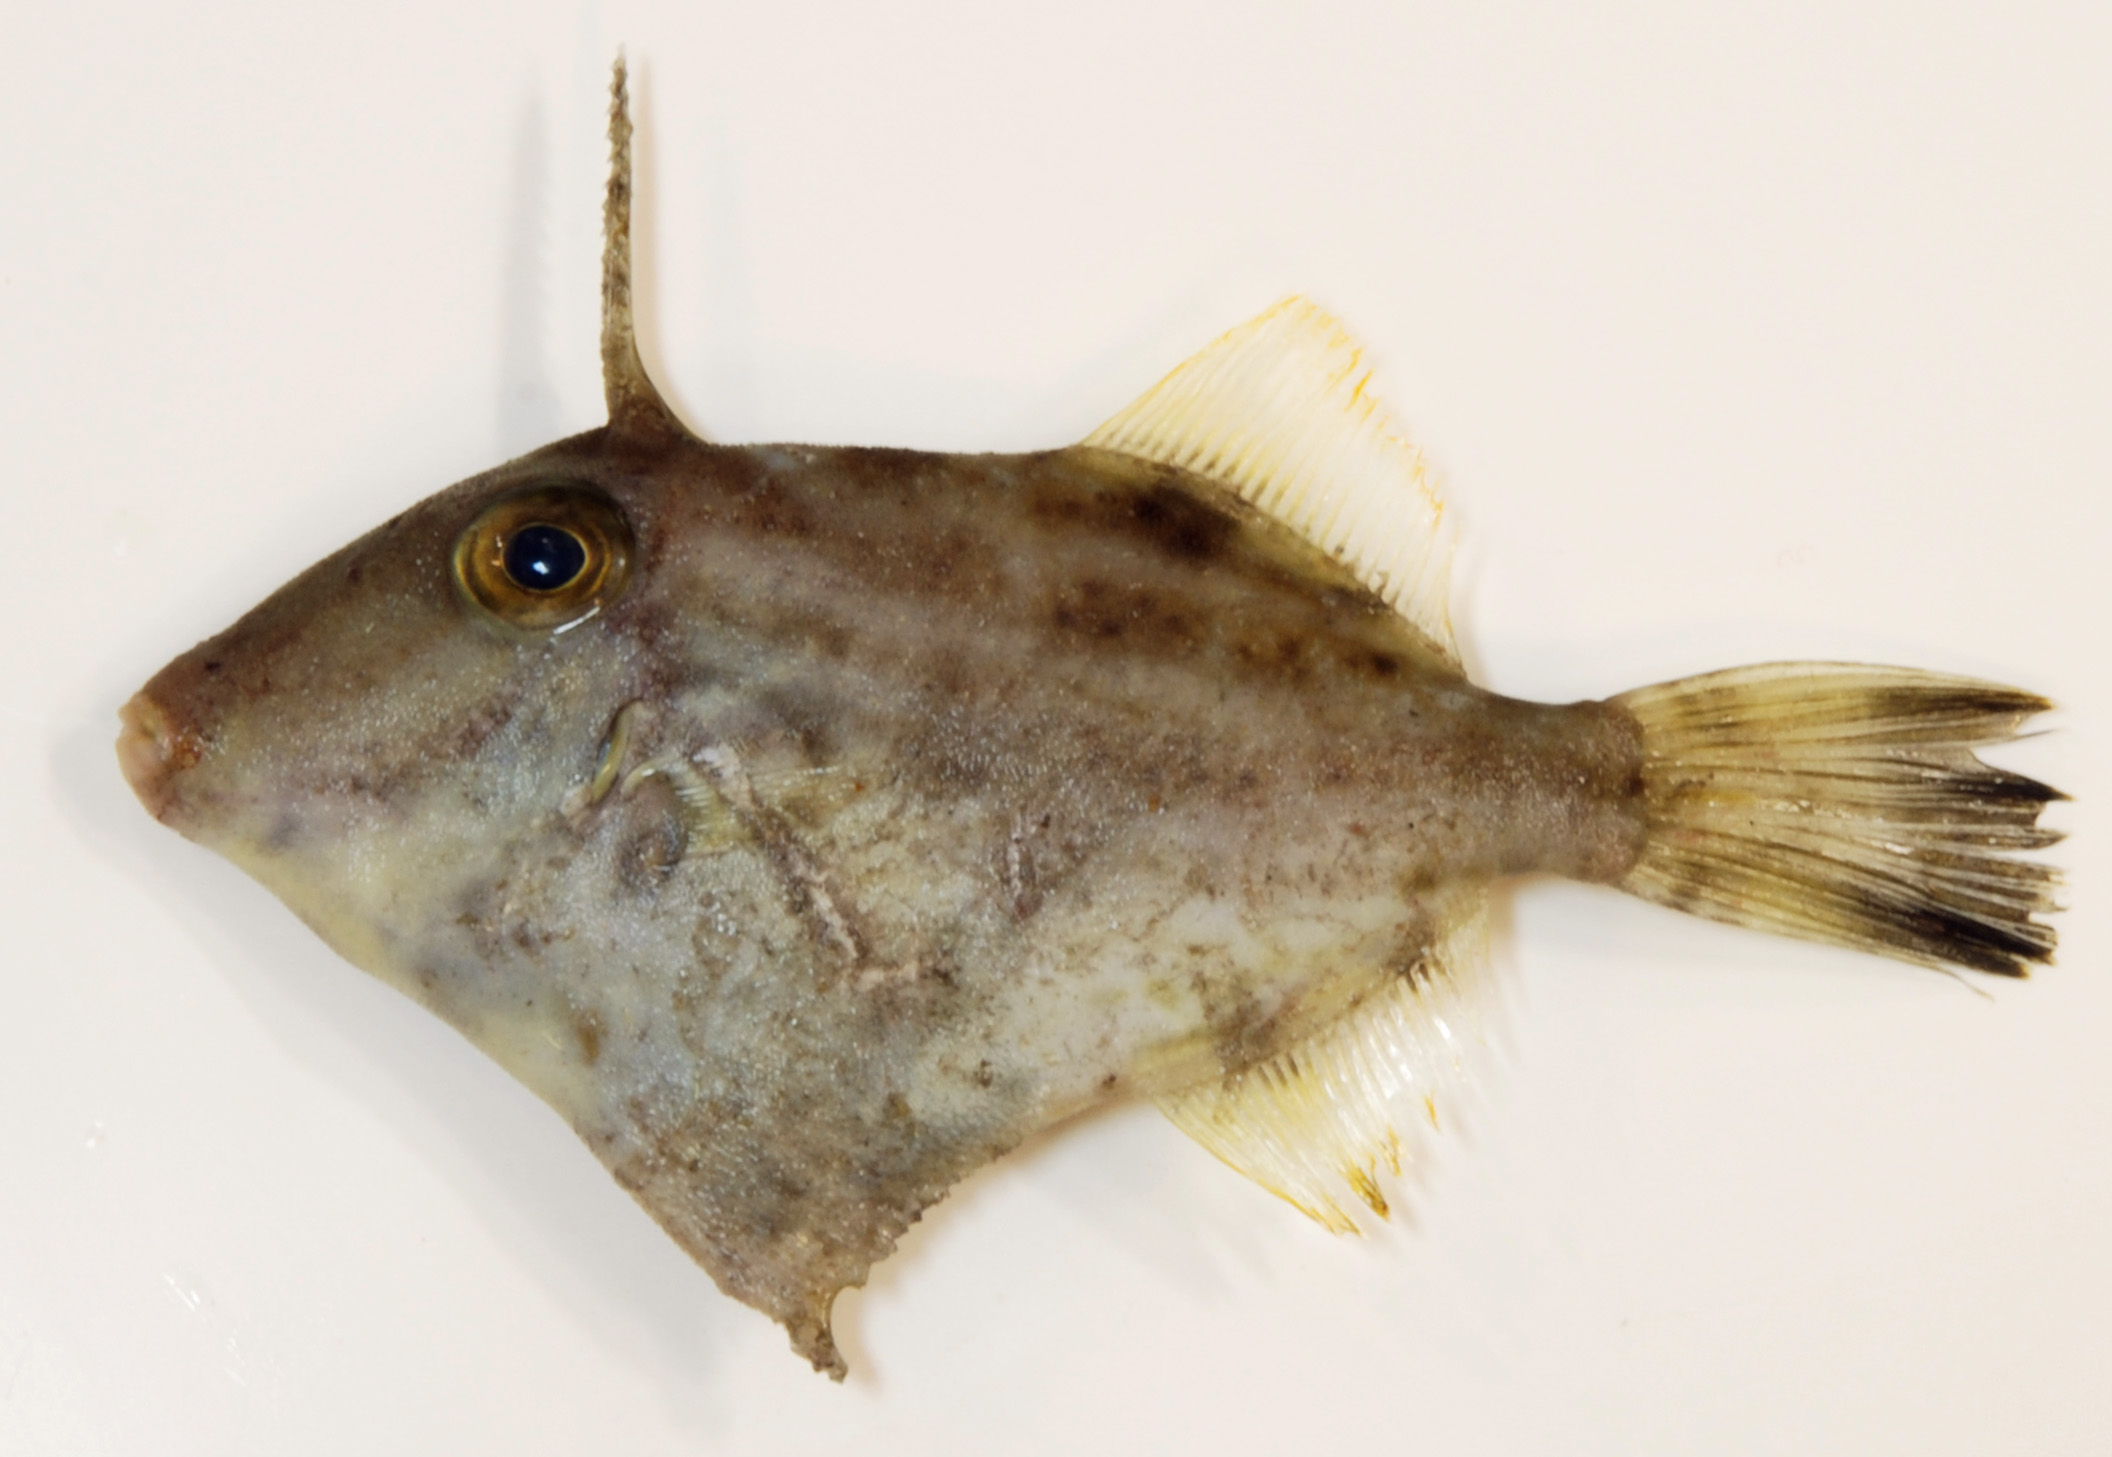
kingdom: Animalia
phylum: Chordata
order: Tetraodontiformes
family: Monacanthidae
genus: Paramonacanthus
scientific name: Paramonacanthus pusillus
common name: Faintstripe filefish
